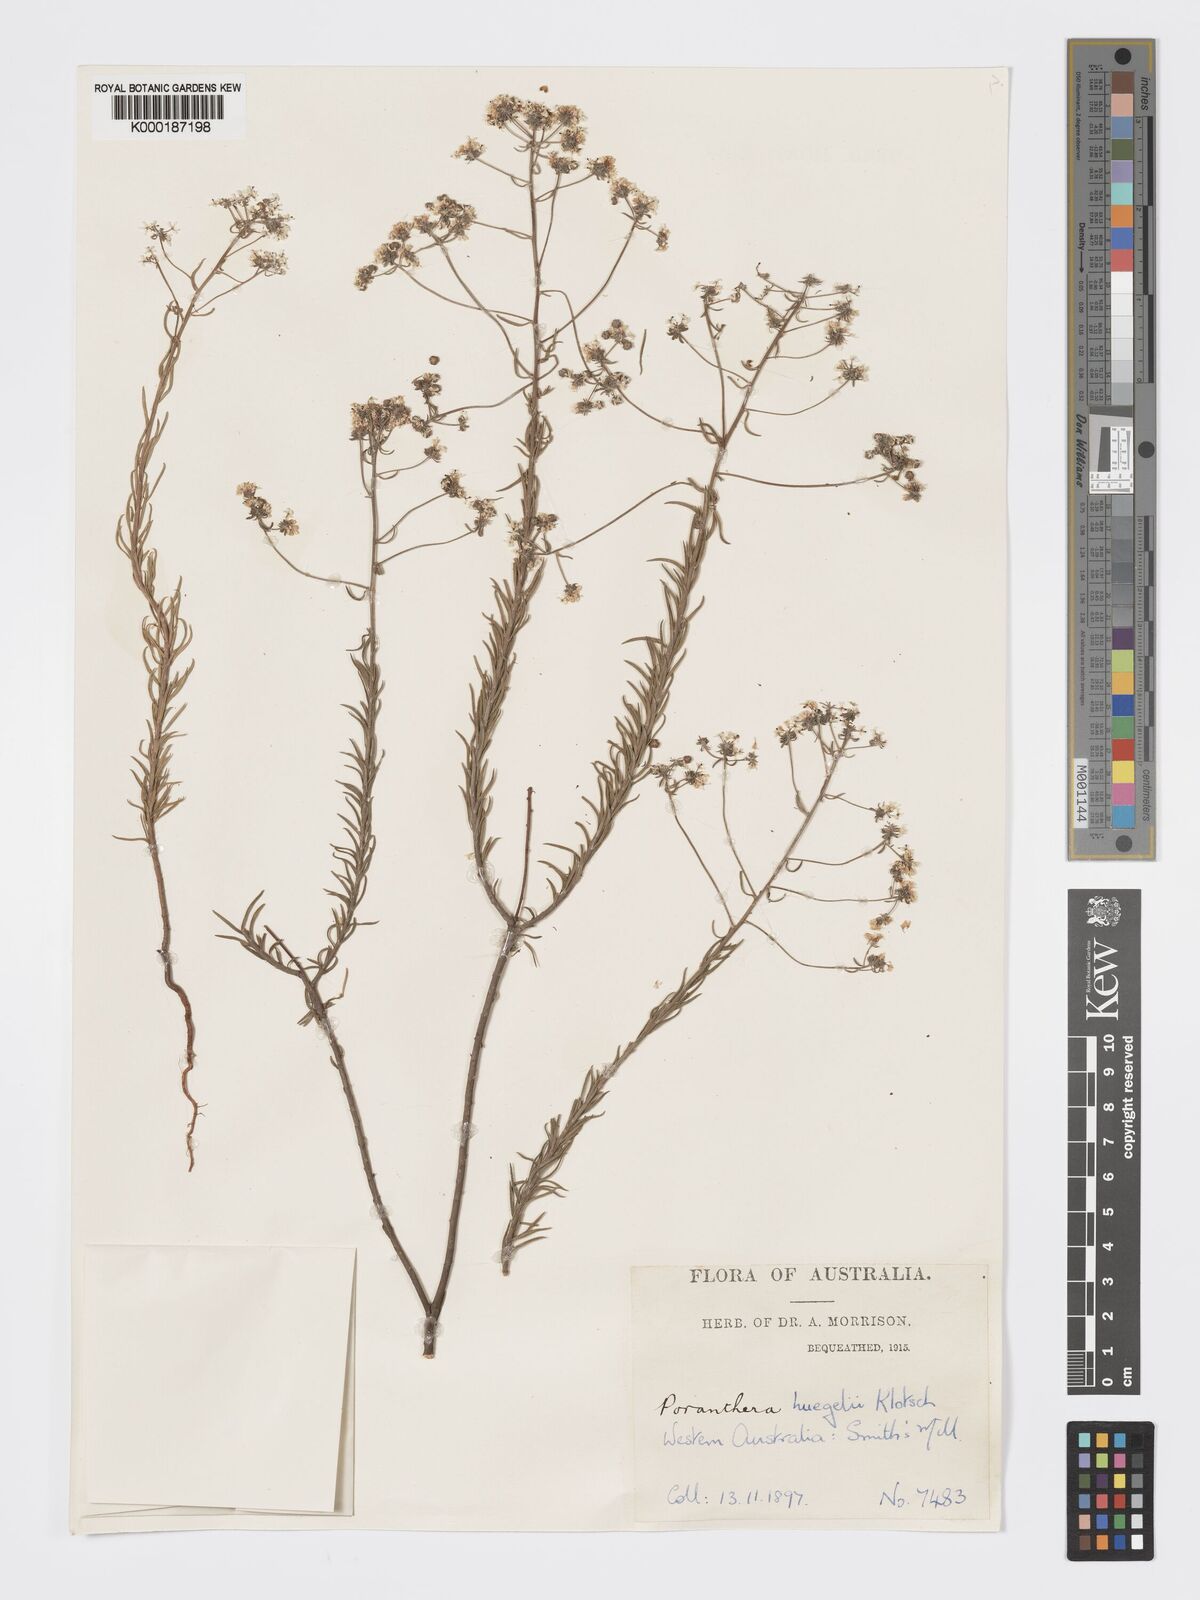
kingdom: Plantae
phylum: Tracheophyta
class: Magnoliopsida
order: Malpighiales
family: Phyllanthaceae
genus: Poranthera
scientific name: Poranthera huegelii
